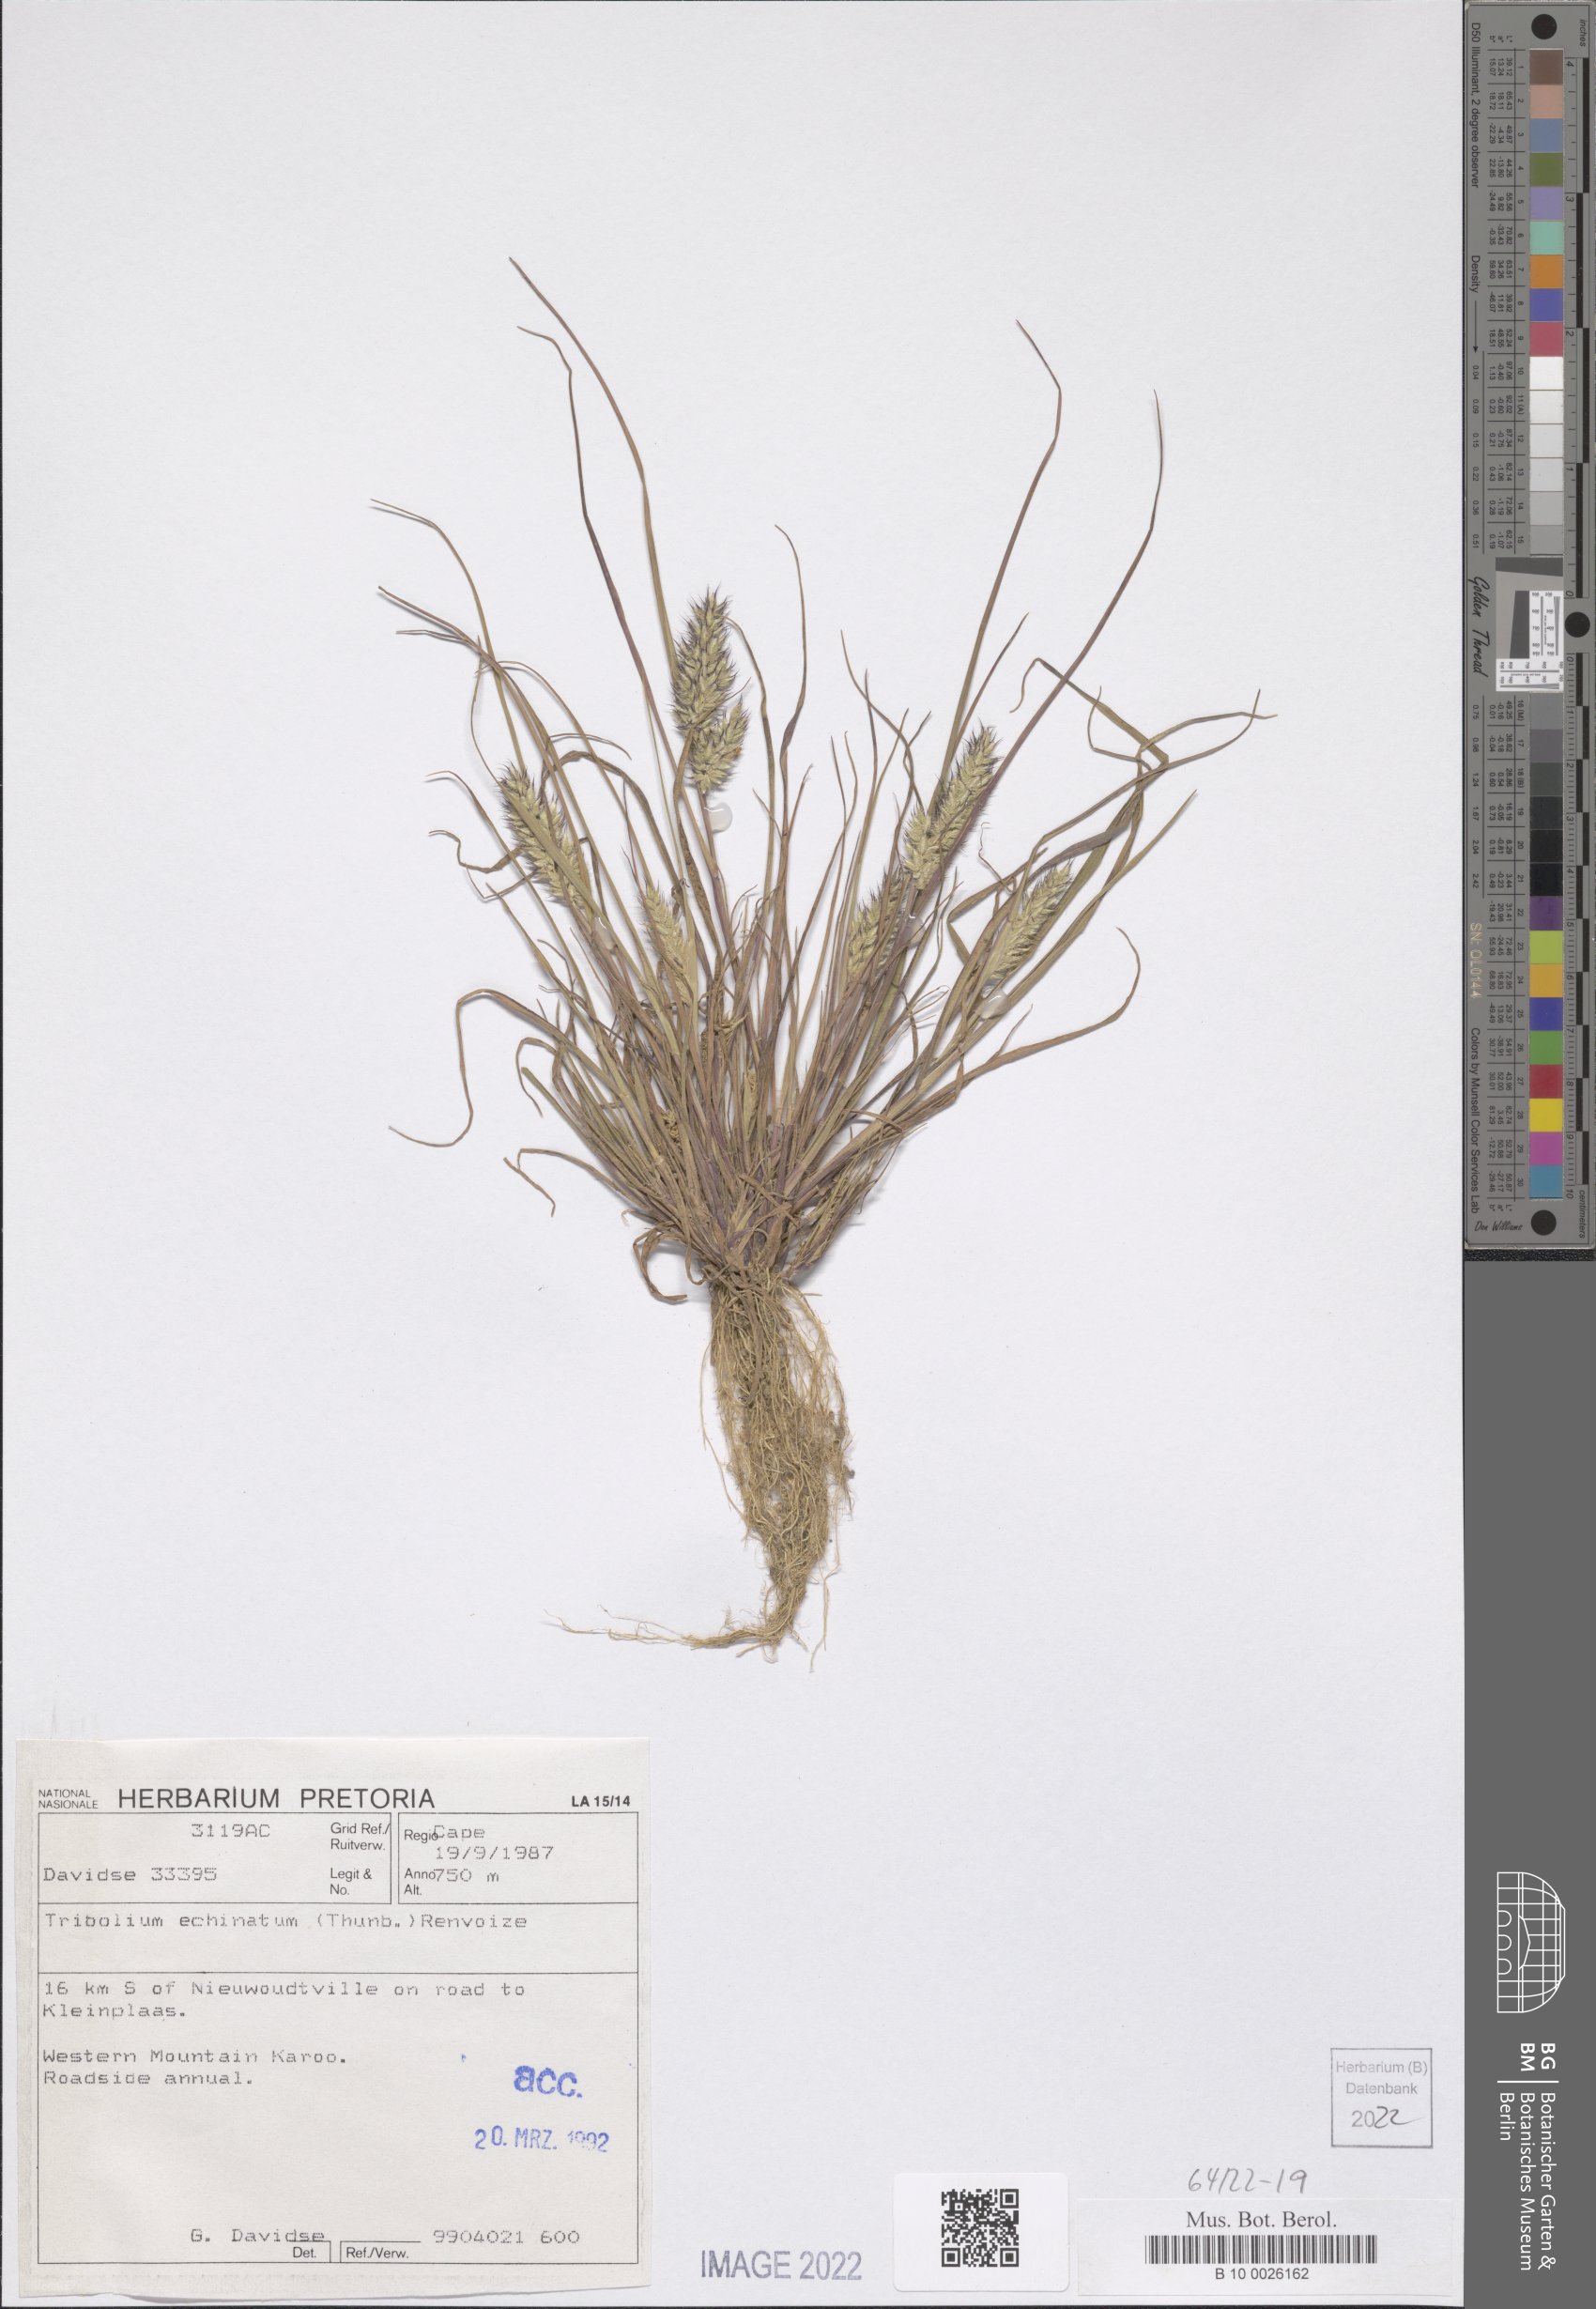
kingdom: Plantae
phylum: Tracheophyta
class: Liliopsida
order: Poales
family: Poaceae
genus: Tribolium
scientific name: Tribolium echinatum
